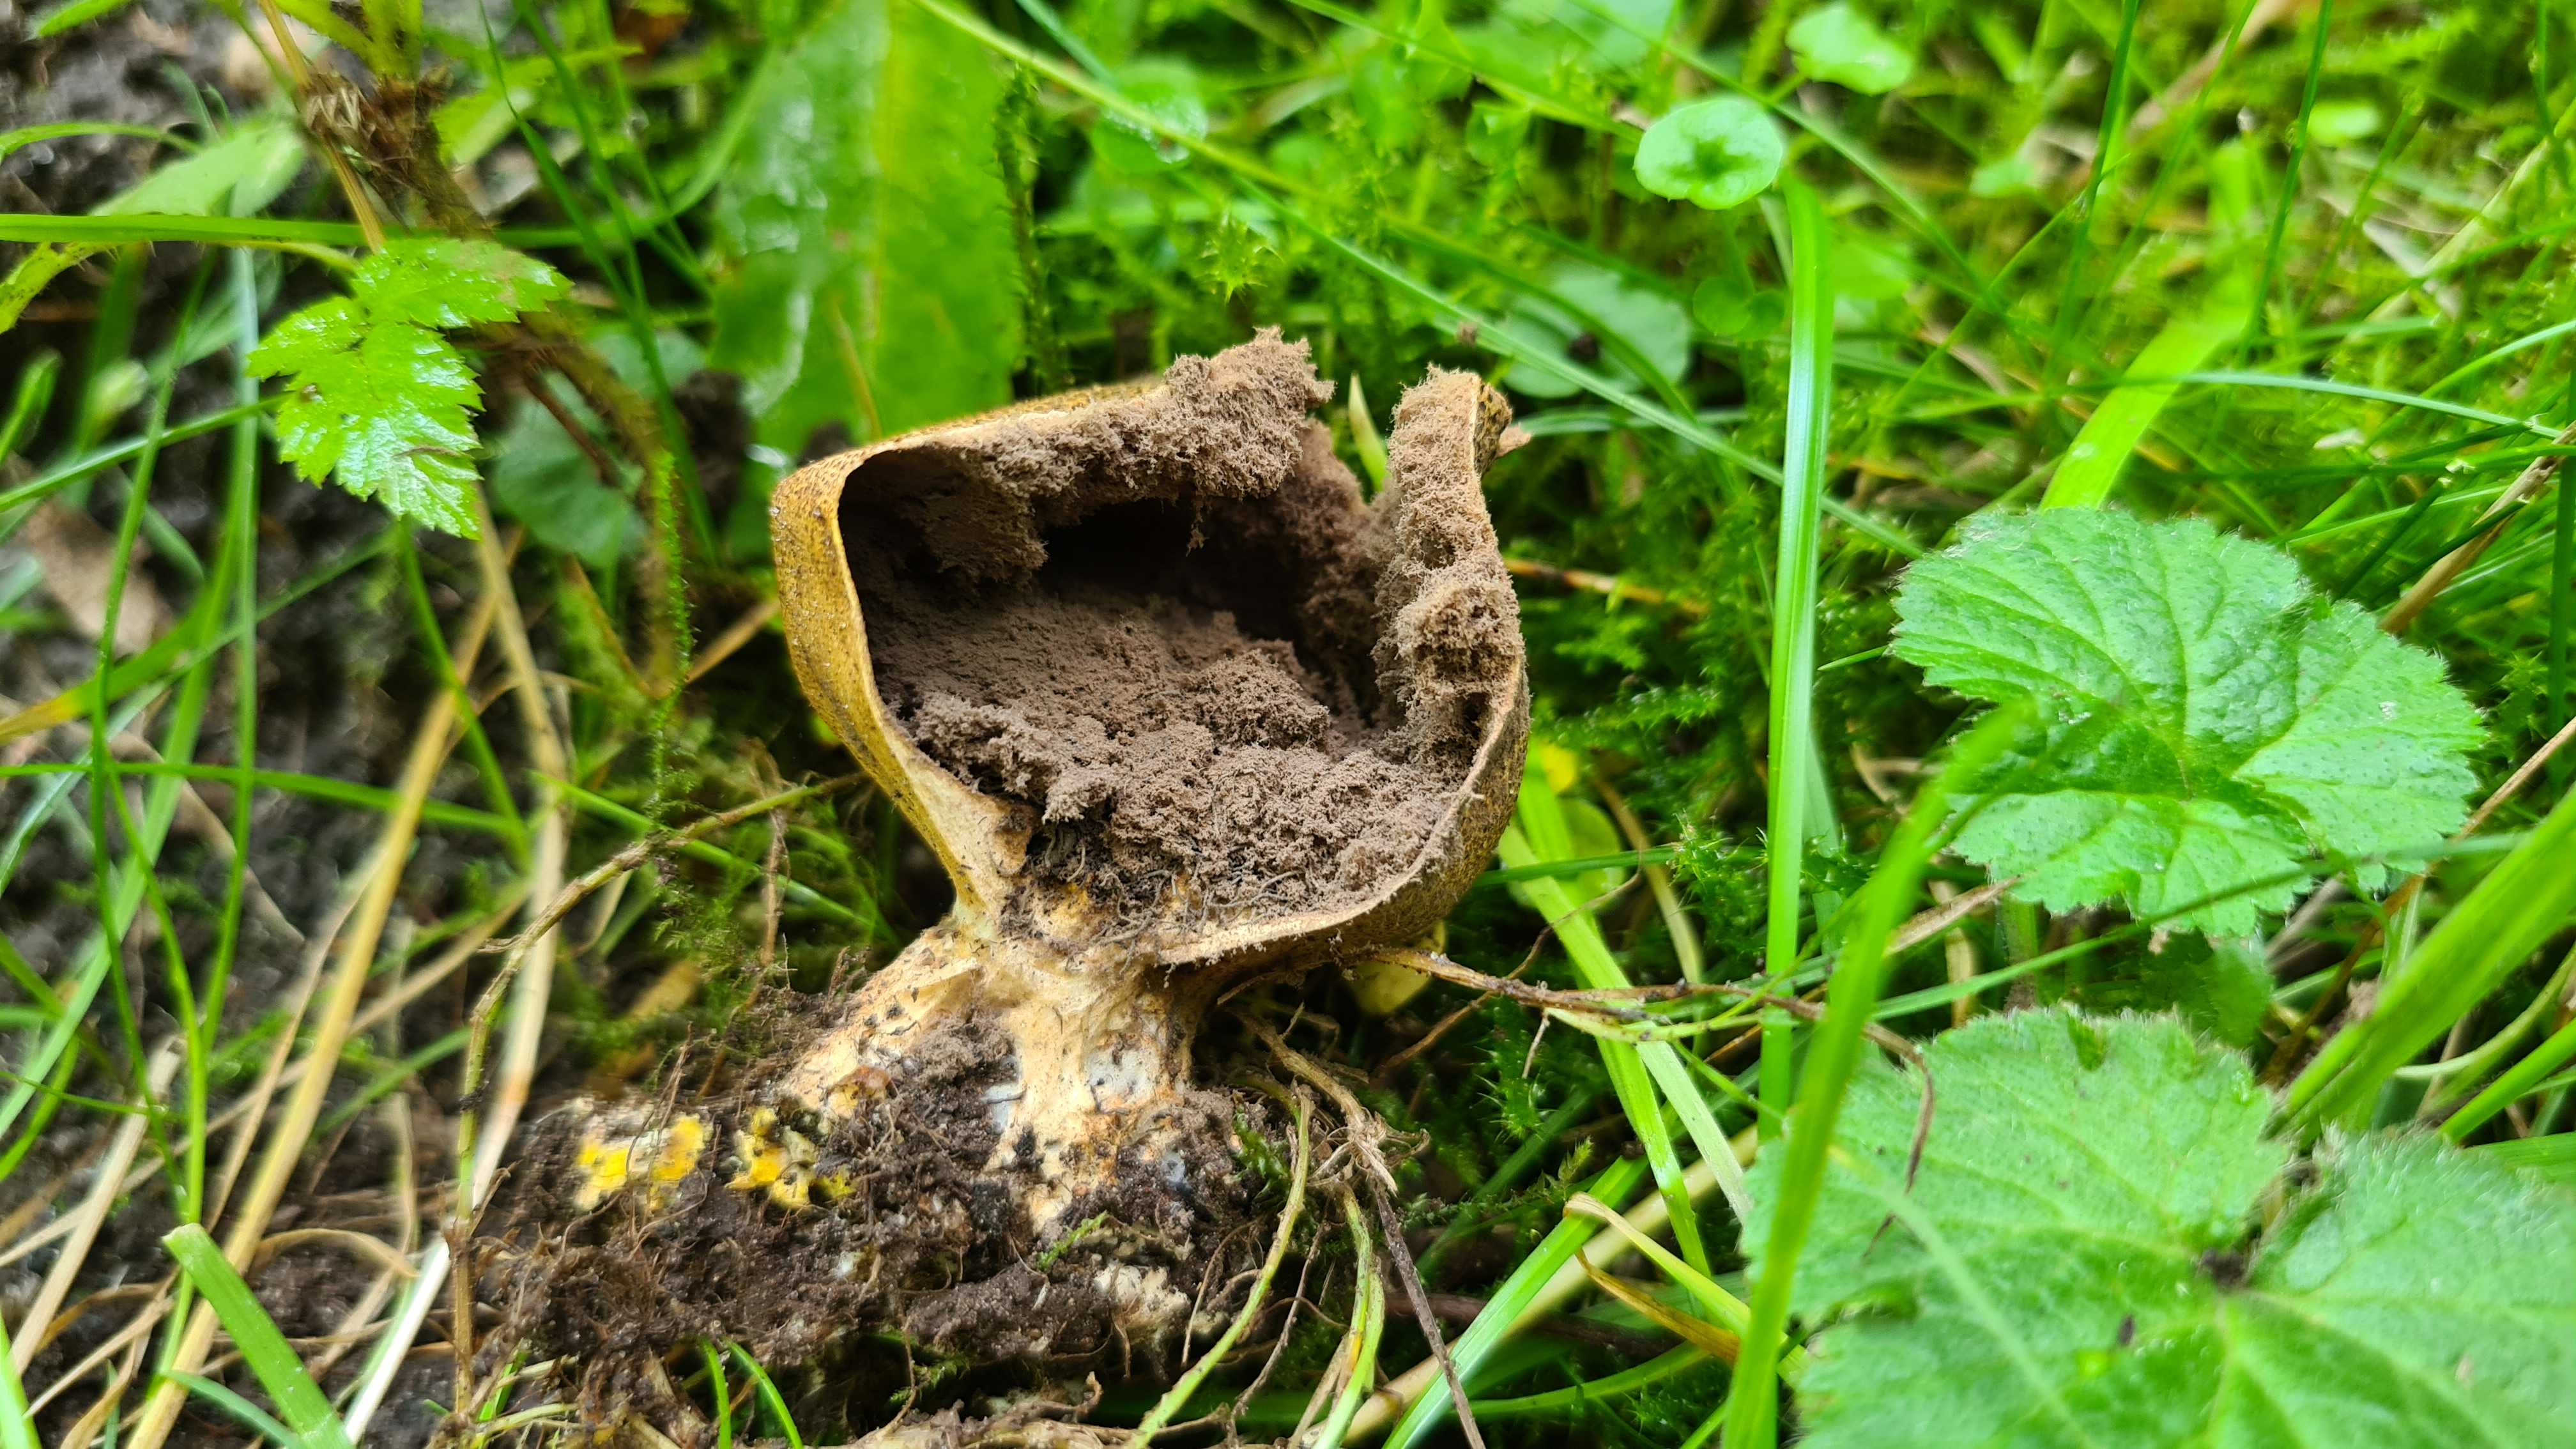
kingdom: Fungi
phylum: Basidiomycota
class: Agaricomycetes
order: Boletales
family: Sclerodermataceae
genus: Scleroderma
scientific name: Scleroderma verrucosum
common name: stilket bruskbold
